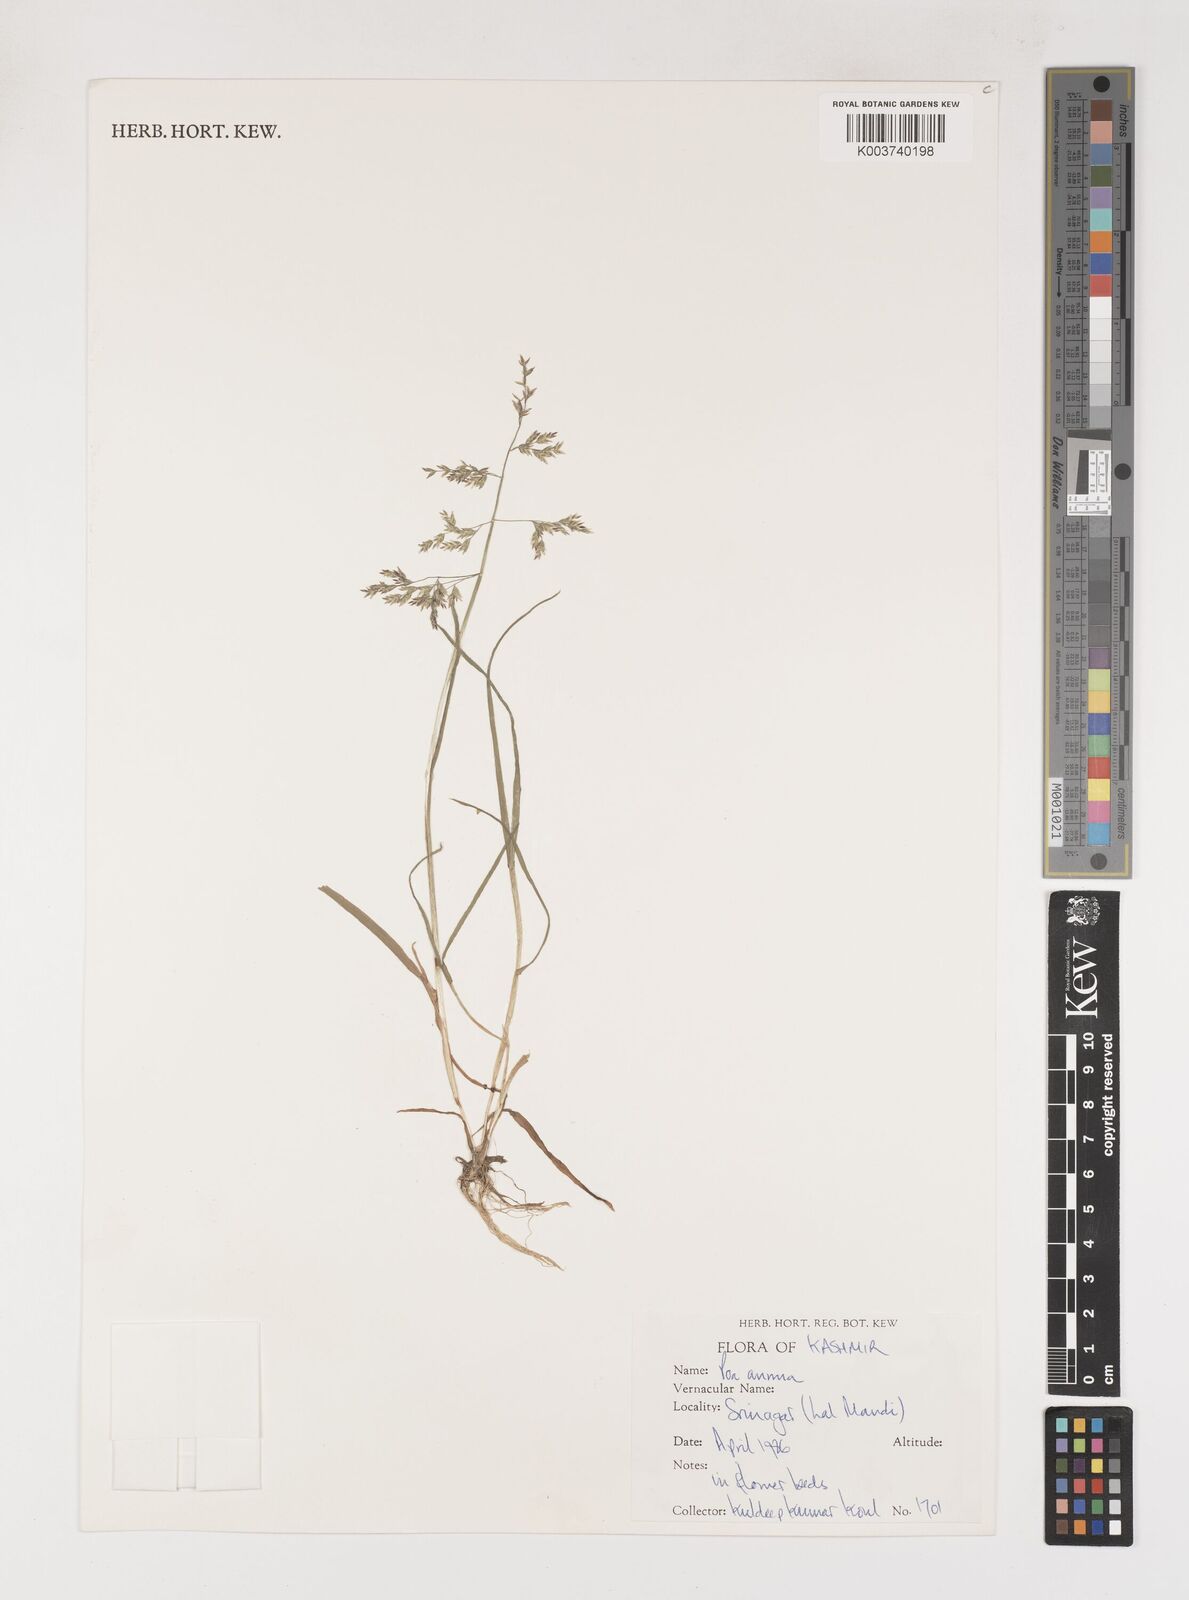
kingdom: Plantae
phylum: Tracheophyta
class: Liliopsida
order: Poales
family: Poaceae
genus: Poa
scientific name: Poa annua
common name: Annual bluegrass
